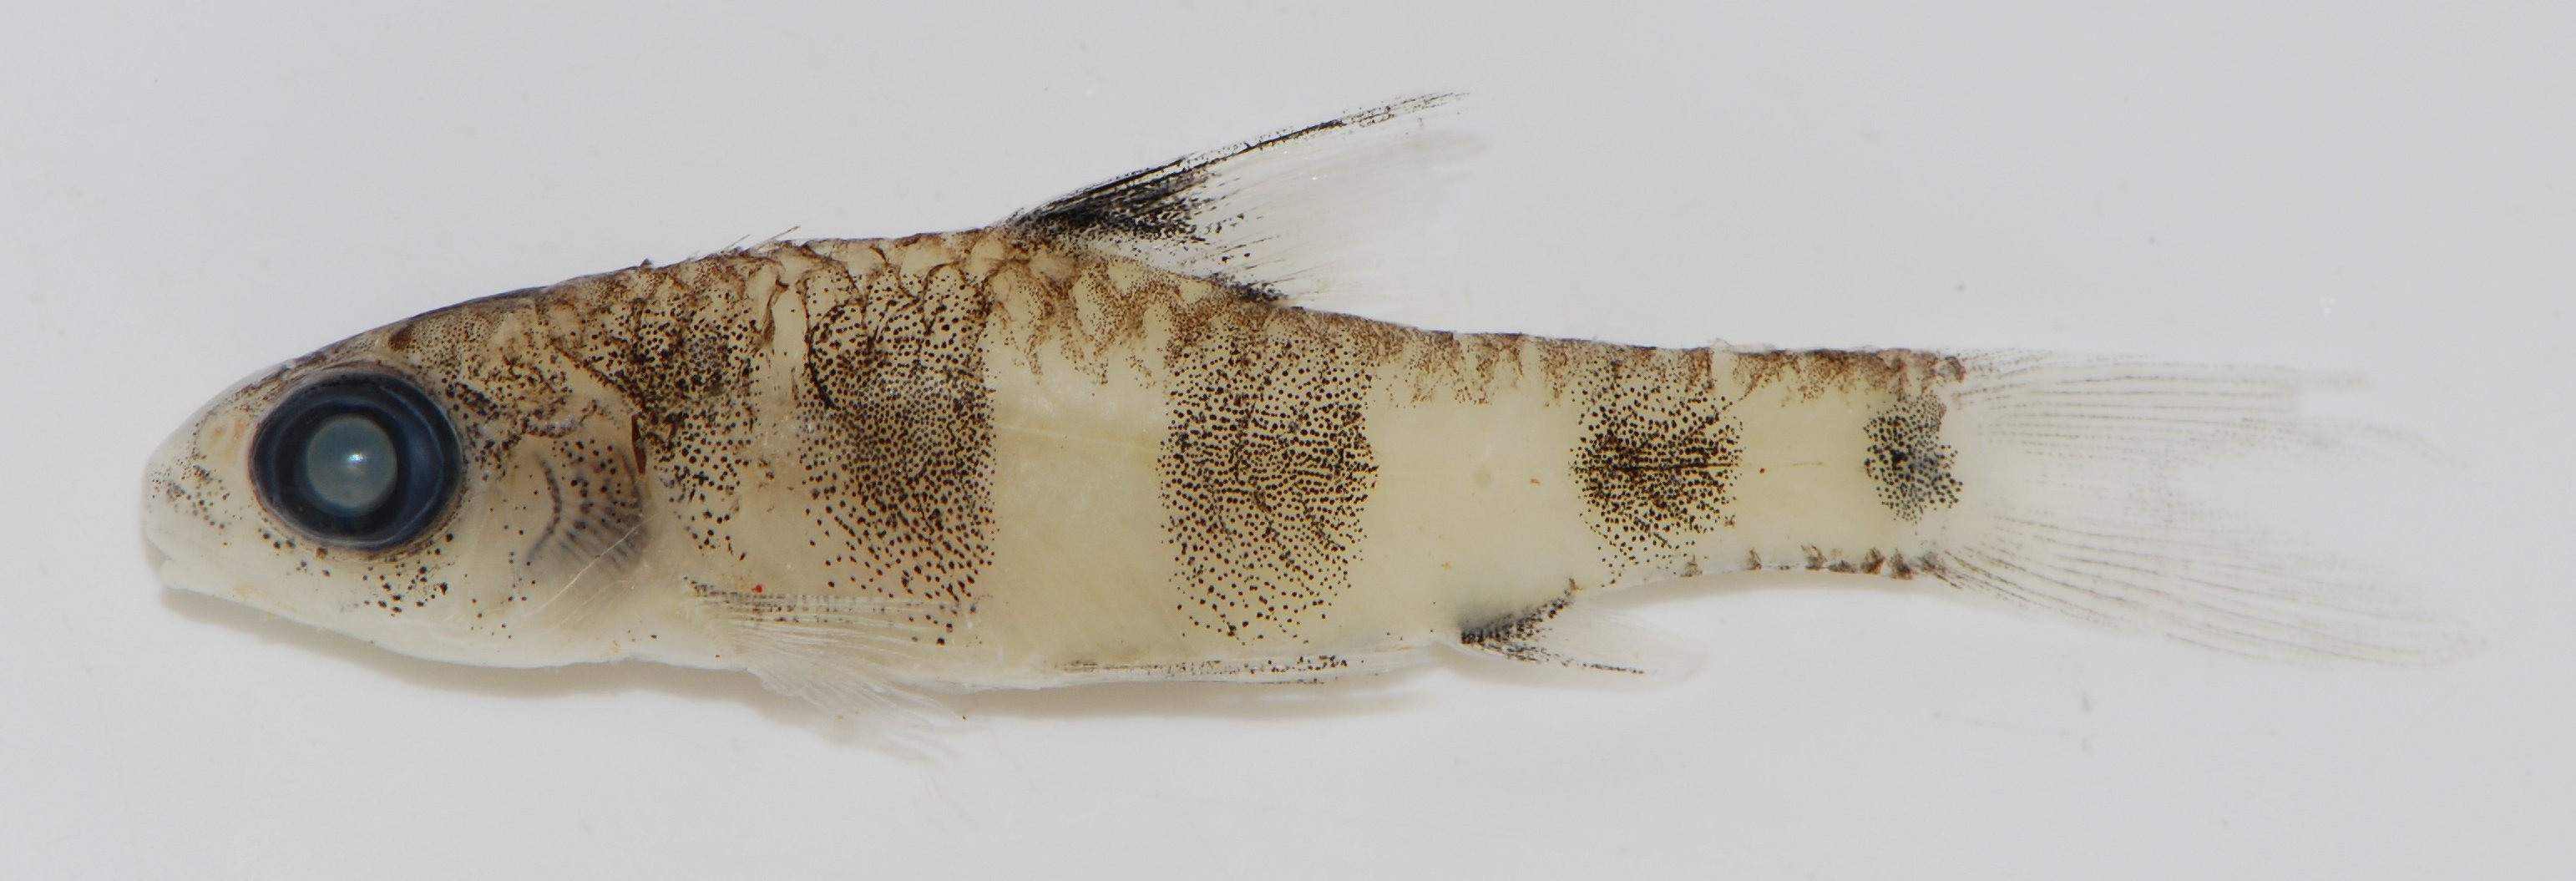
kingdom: Animalia
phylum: Chordata
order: Cypriniformes
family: Cyprinidae
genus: Barbus
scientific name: Barbus
